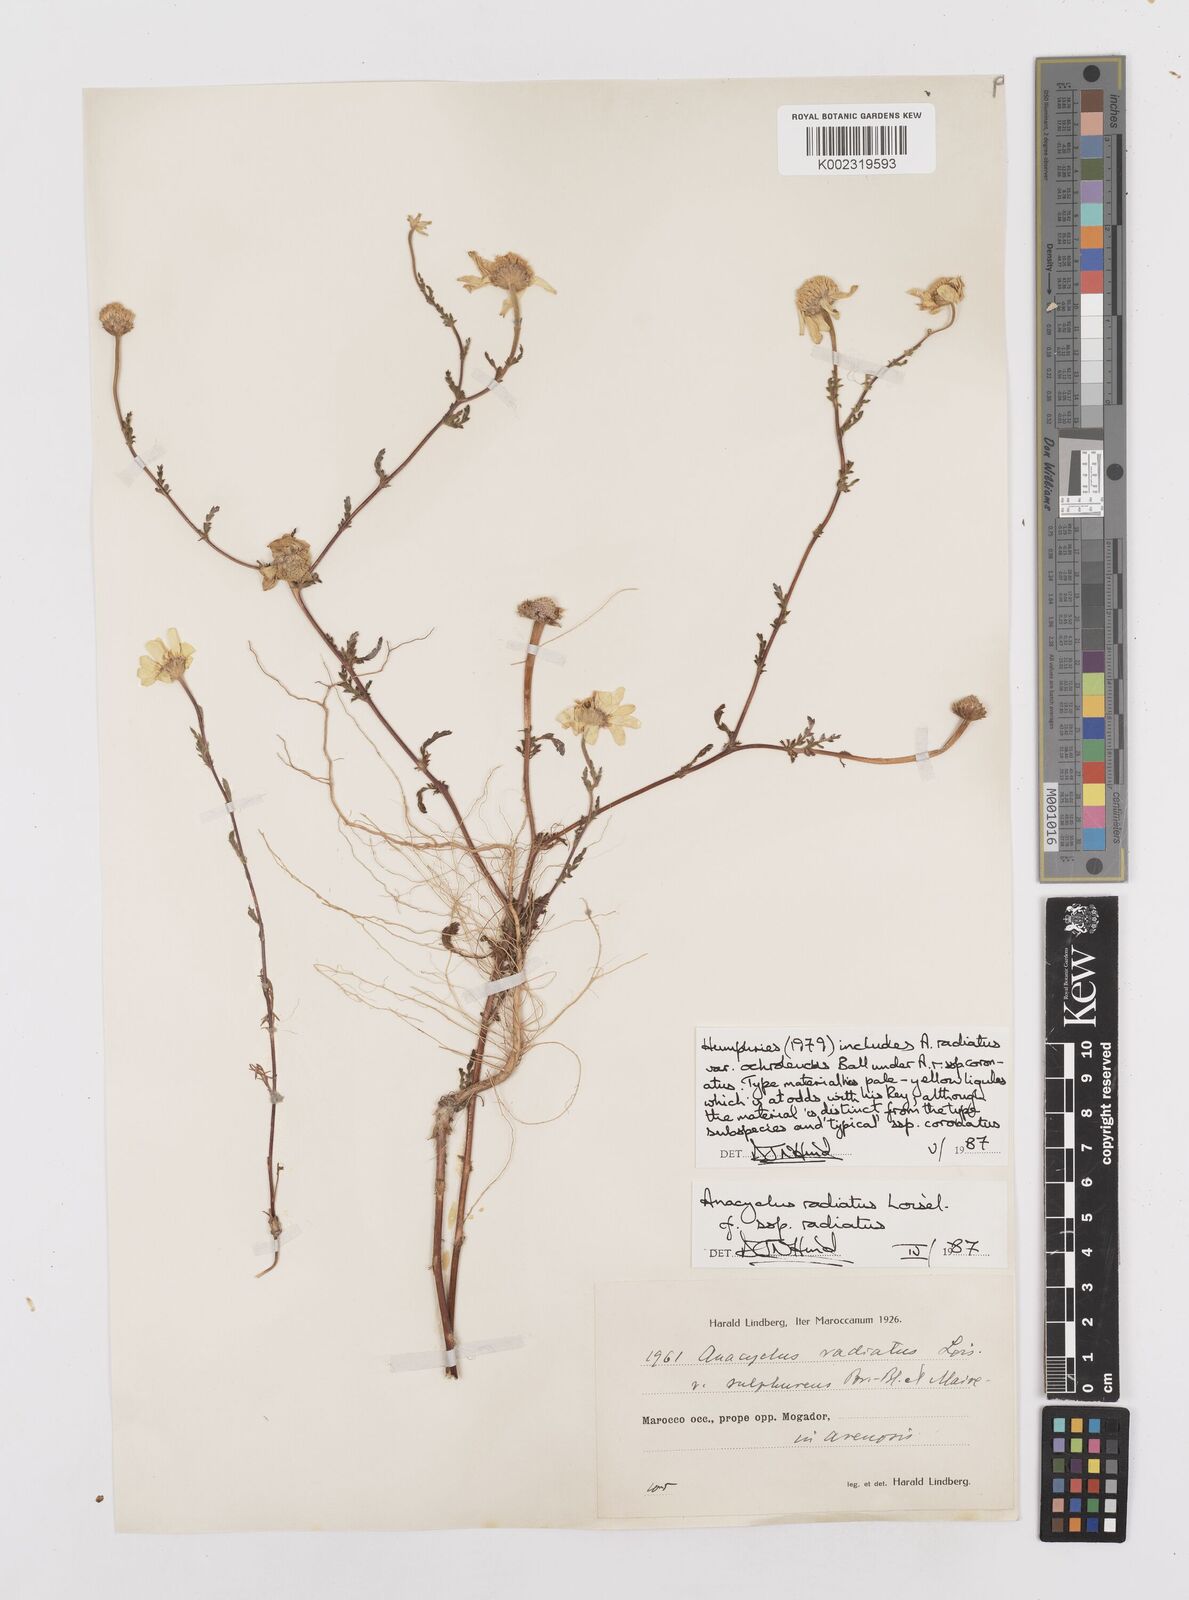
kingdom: Plantae
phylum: Tracheophyta
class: Magnoliopsida
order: Asterales
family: Asteraceae
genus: Anacyclus
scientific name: Anacyclus radiatus
